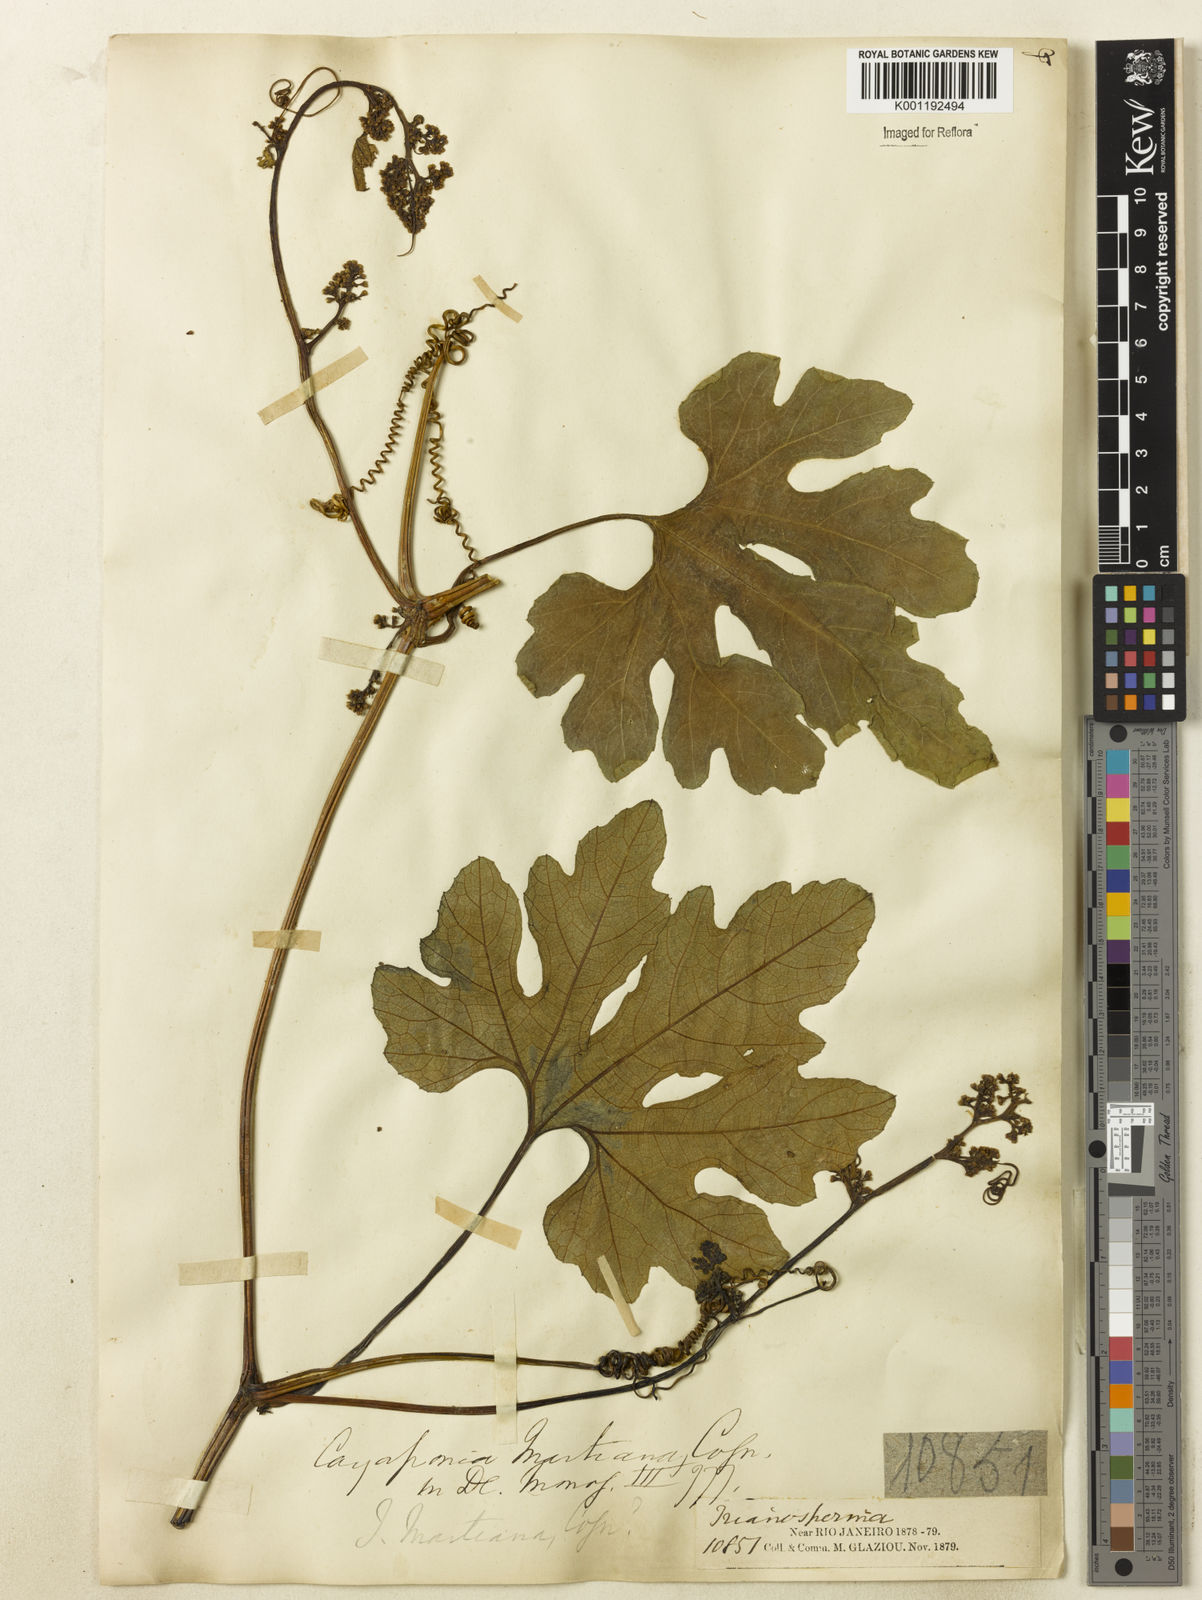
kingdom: Plantae
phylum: Tracheophyta
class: Magnoliopsida
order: Cucurbitales
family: Cucurbitaceae
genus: Cayaponia
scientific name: Cayaponia martiana
